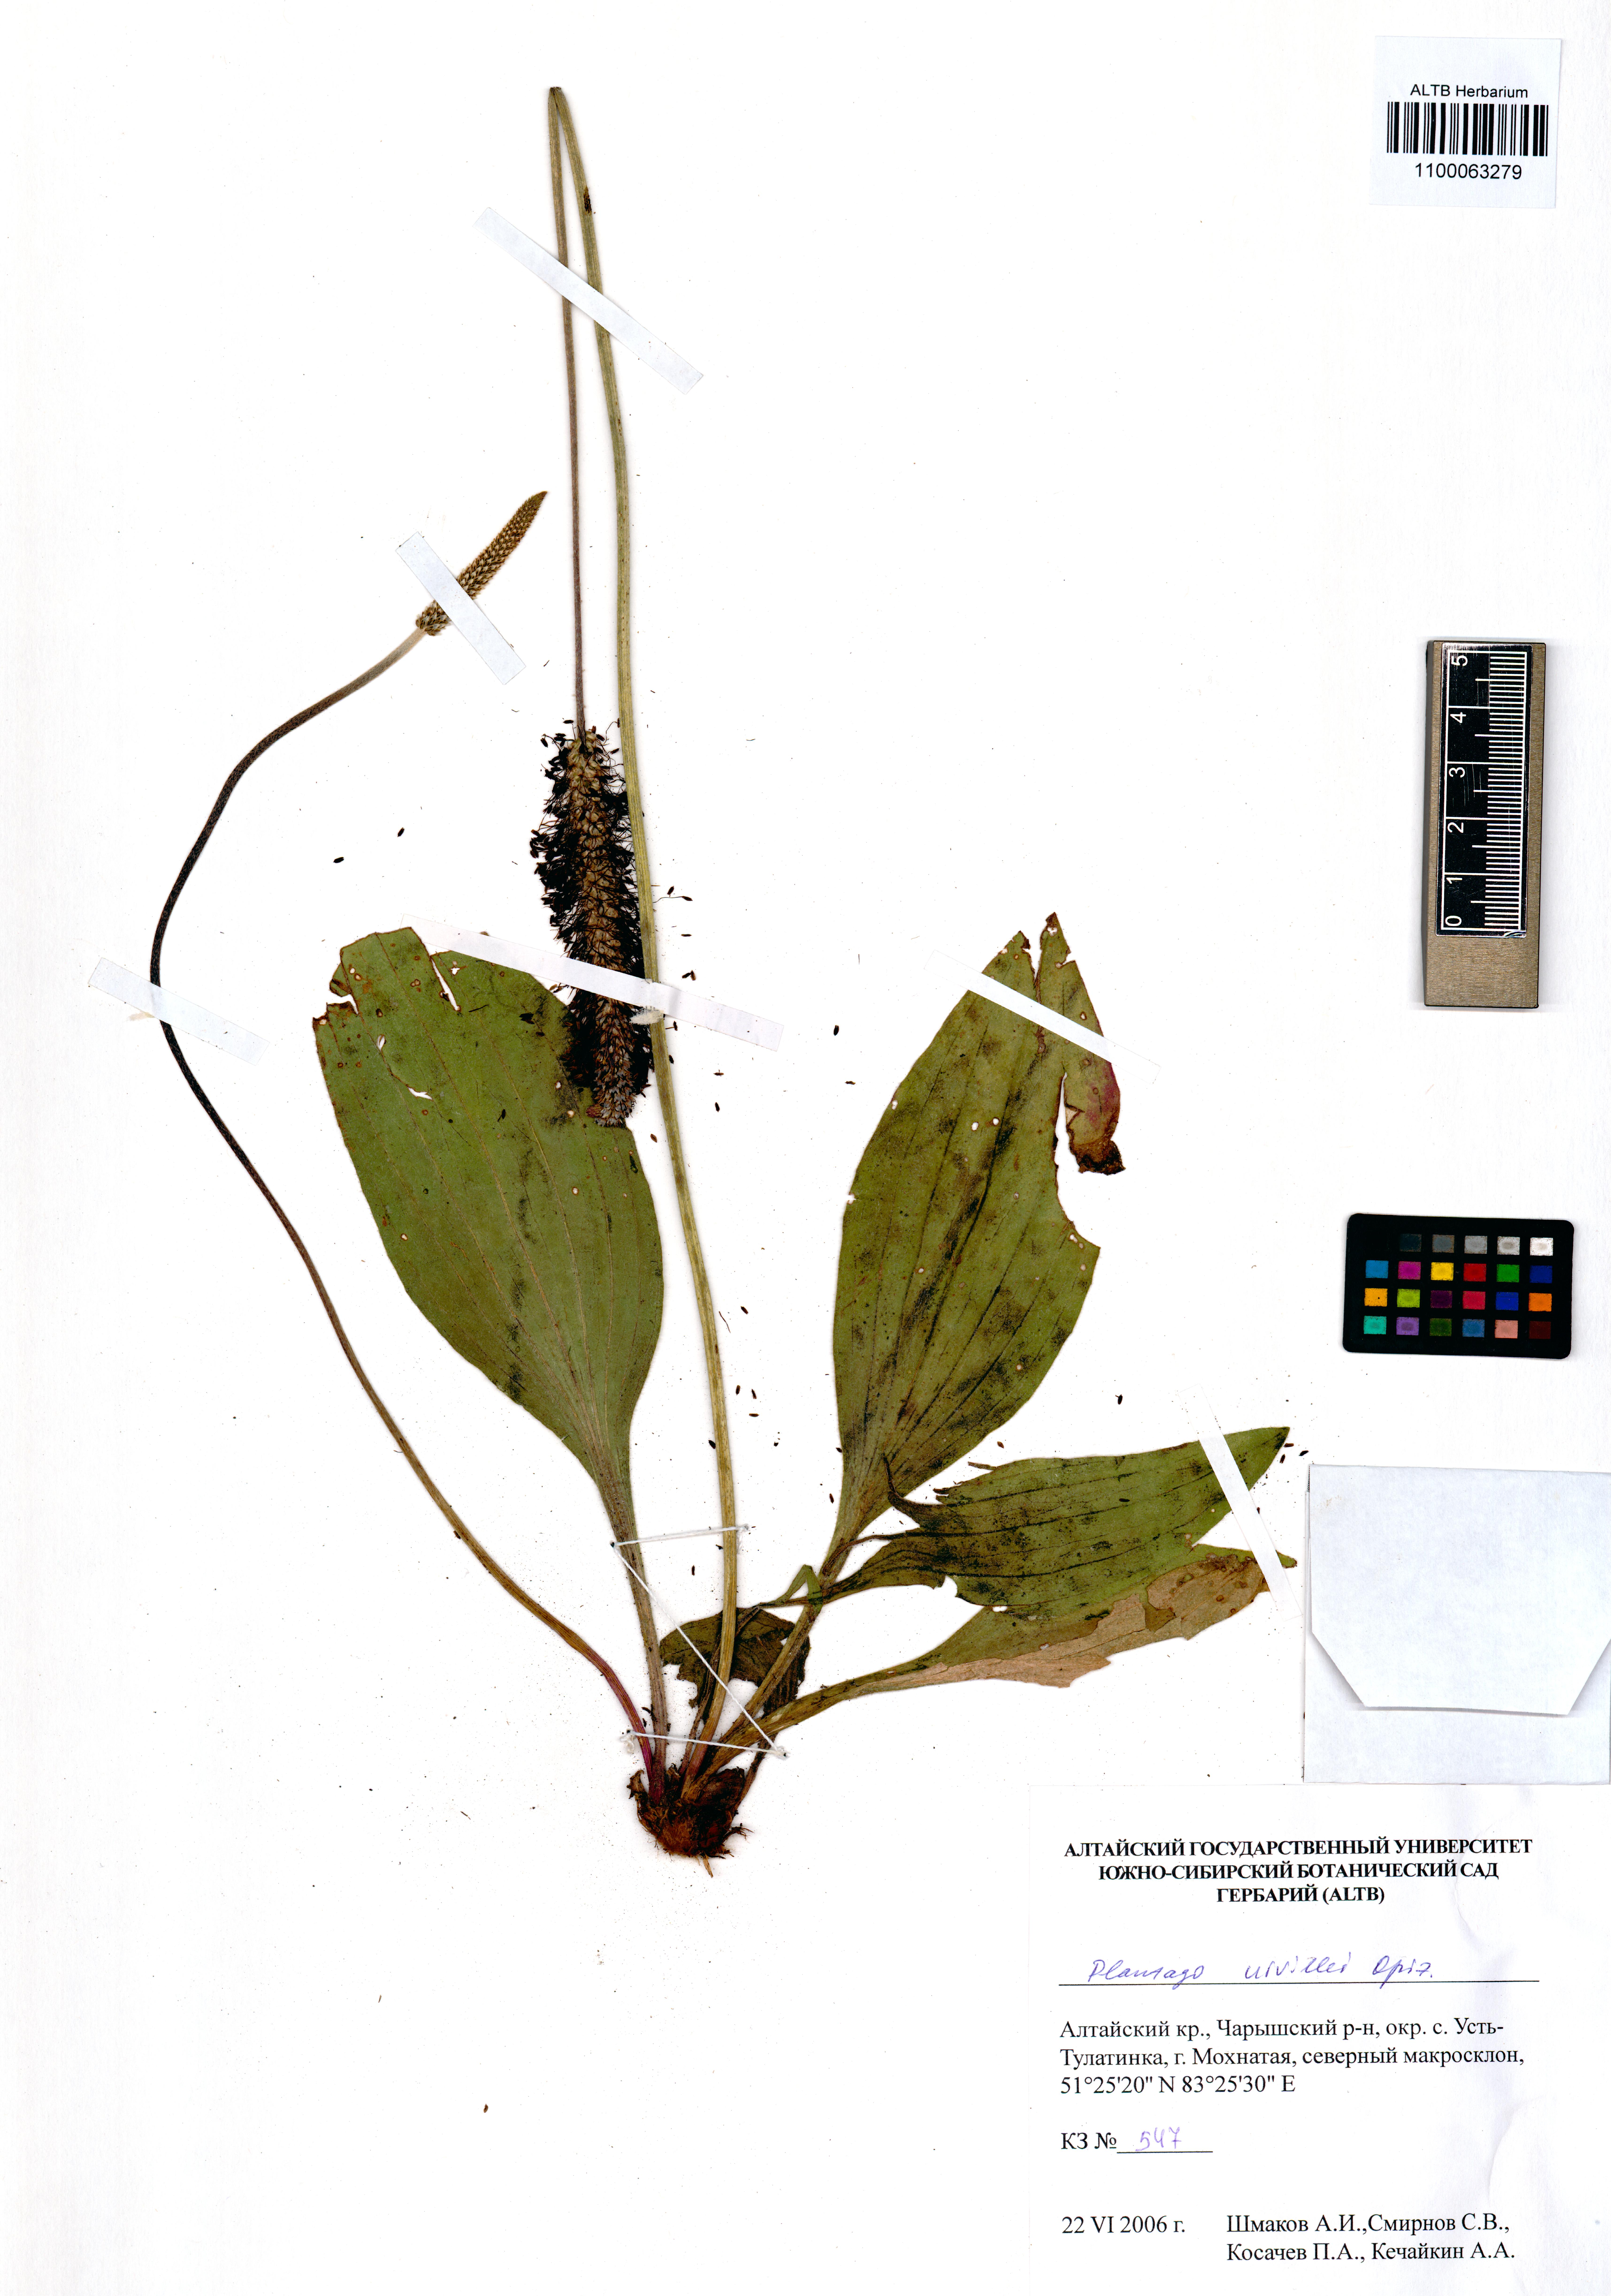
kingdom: Plantae
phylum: Tracheophyta
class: Magnoliopsida
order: Lamiales
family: Plantaginaceae
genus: Plantago
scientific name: Plantago urvillei
